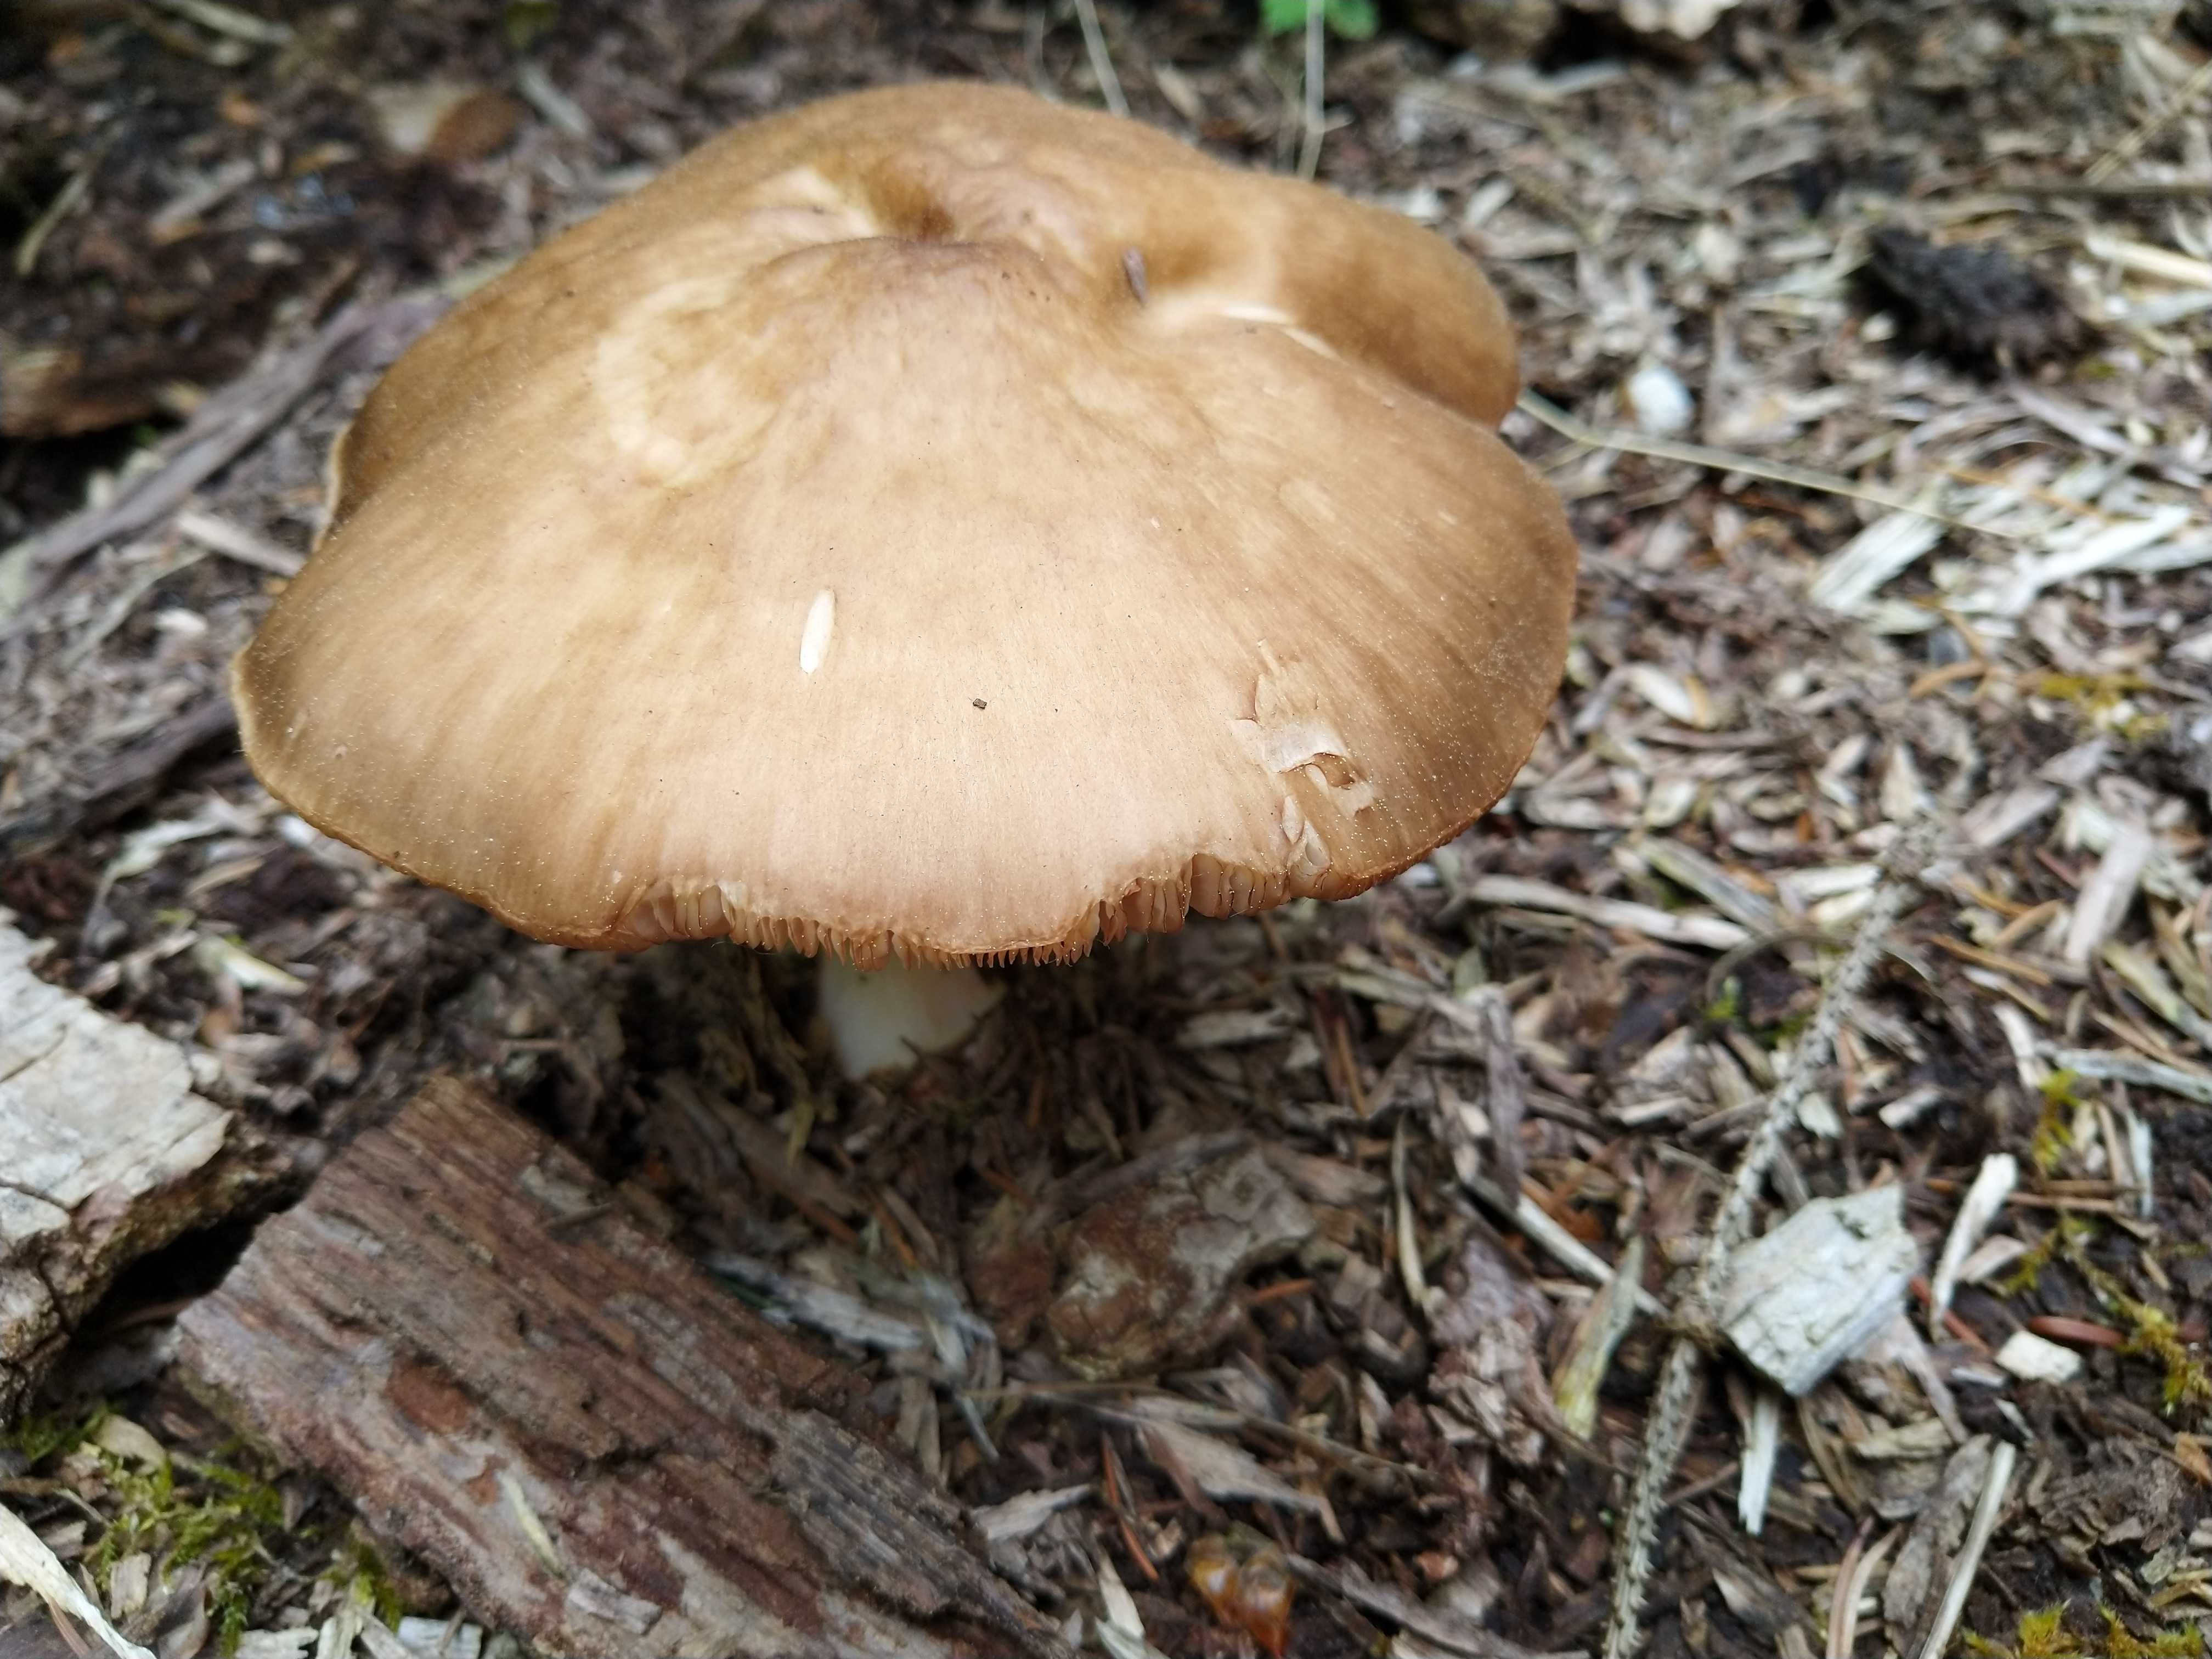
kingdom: Fungi
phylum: Basidiomycota
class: Agaricomycetes
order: Agaricales
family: Pluteaceae
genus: Pluteus
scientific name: Pluteus
